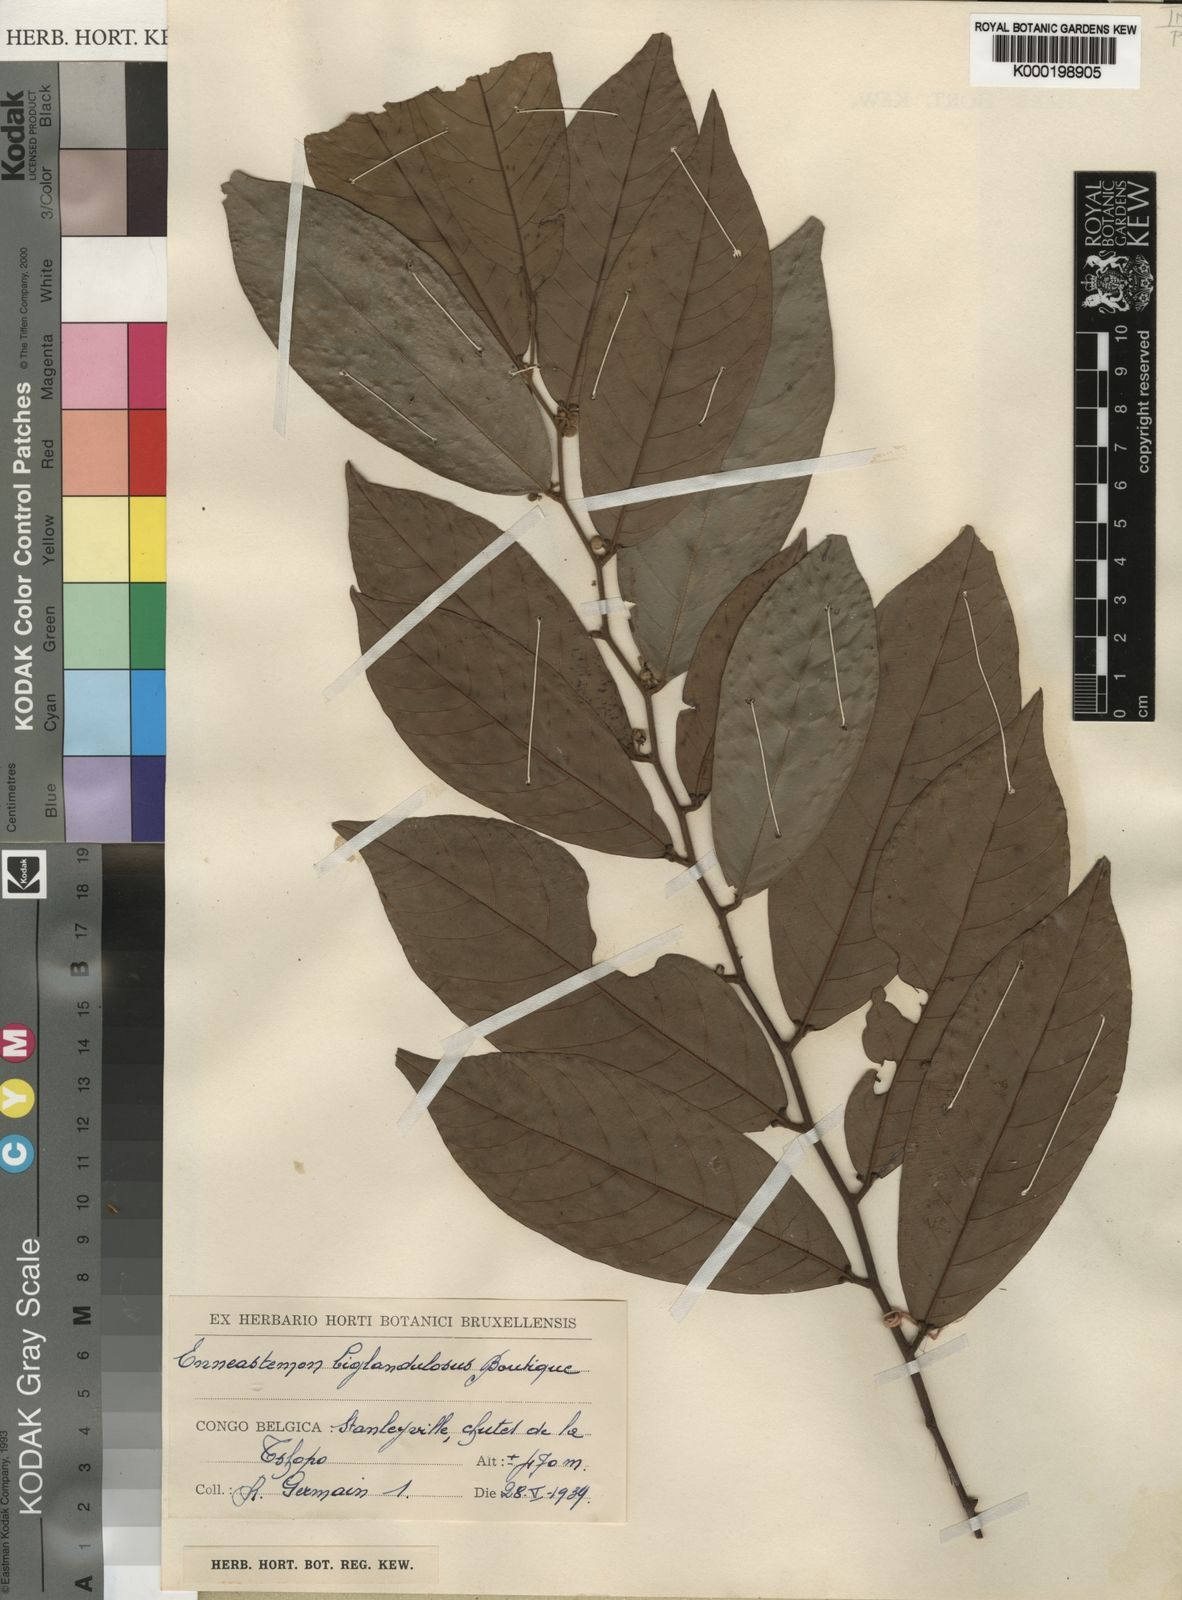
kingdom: Plantae
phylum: Tracheophyta
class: Magnoliopsida
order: Magnoliales
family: Annonaceae
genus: Monanthotaxis
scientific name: Monanthotaxis
